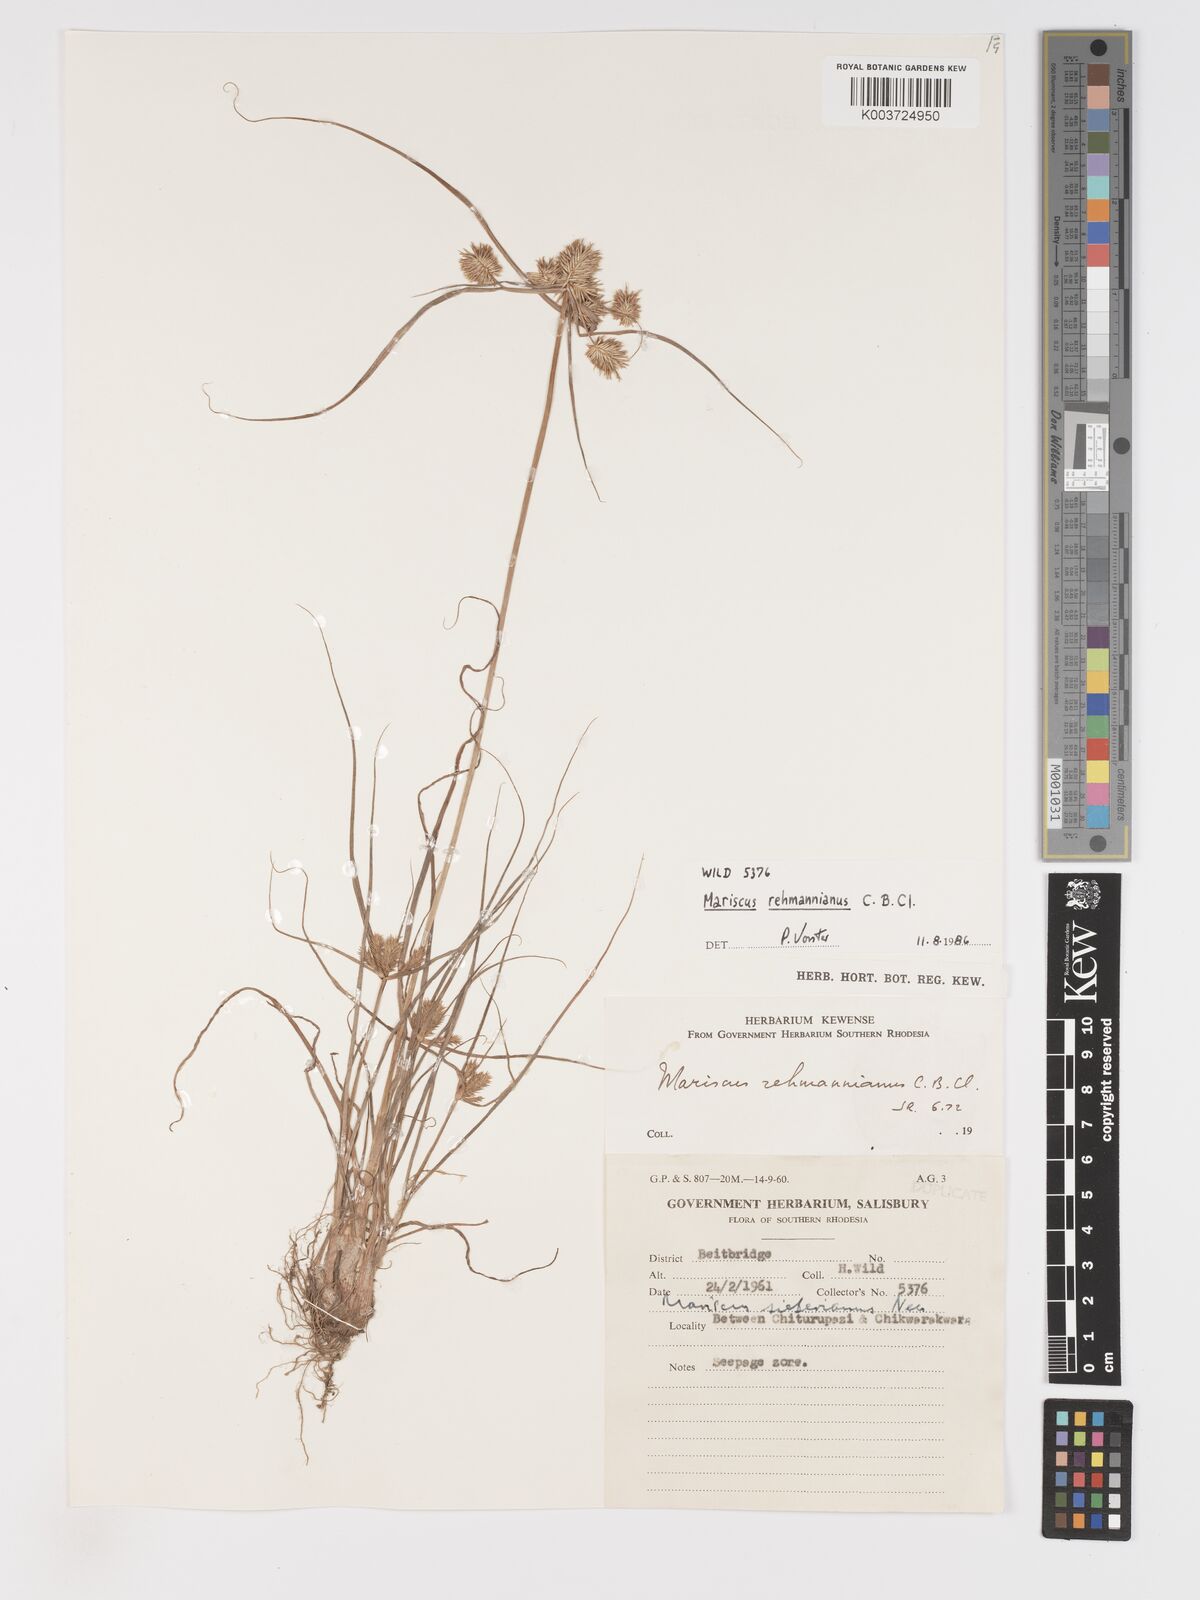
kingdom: Plantae
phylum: Tracheophyta
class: Liliopsida
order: Poales
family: Cyperaceae
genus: Cyperus
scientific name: Cyperus indecorus
